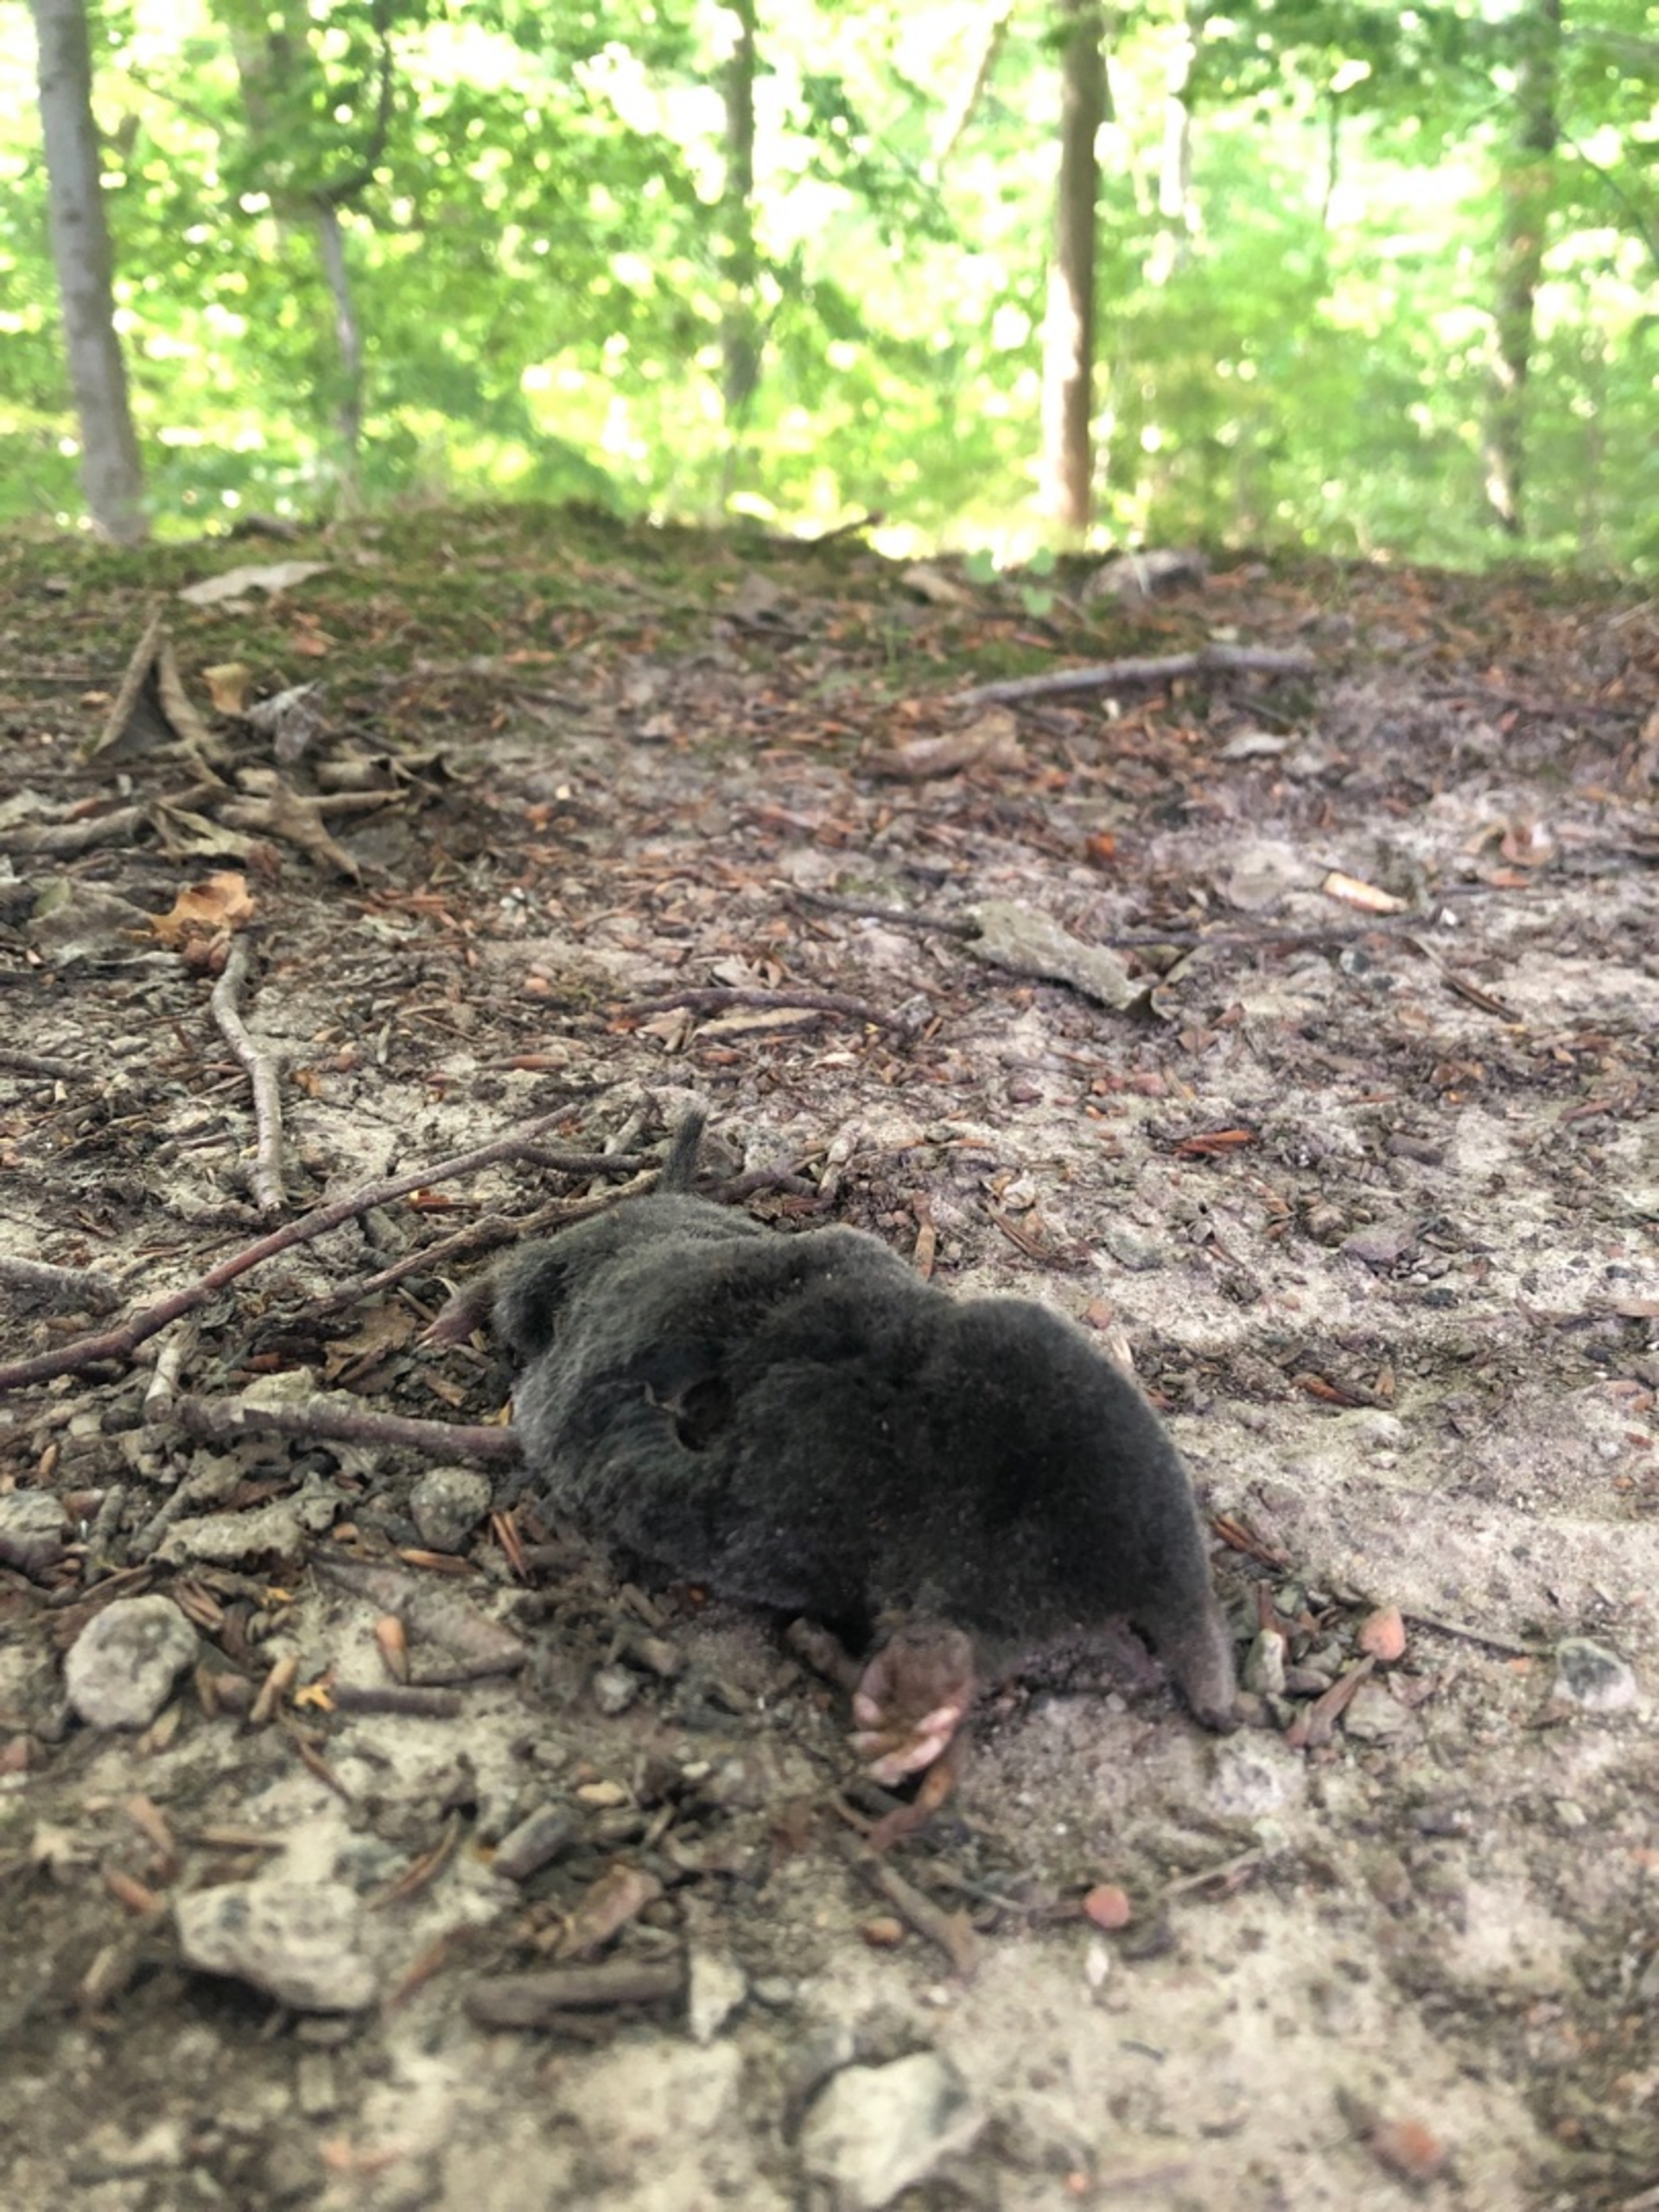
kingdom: Animalia
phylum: Chordata
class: Mammalia
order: Soricomorpha
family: Talpidae
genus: Talpa
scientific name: Talpa europaea
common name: Muldvarp
